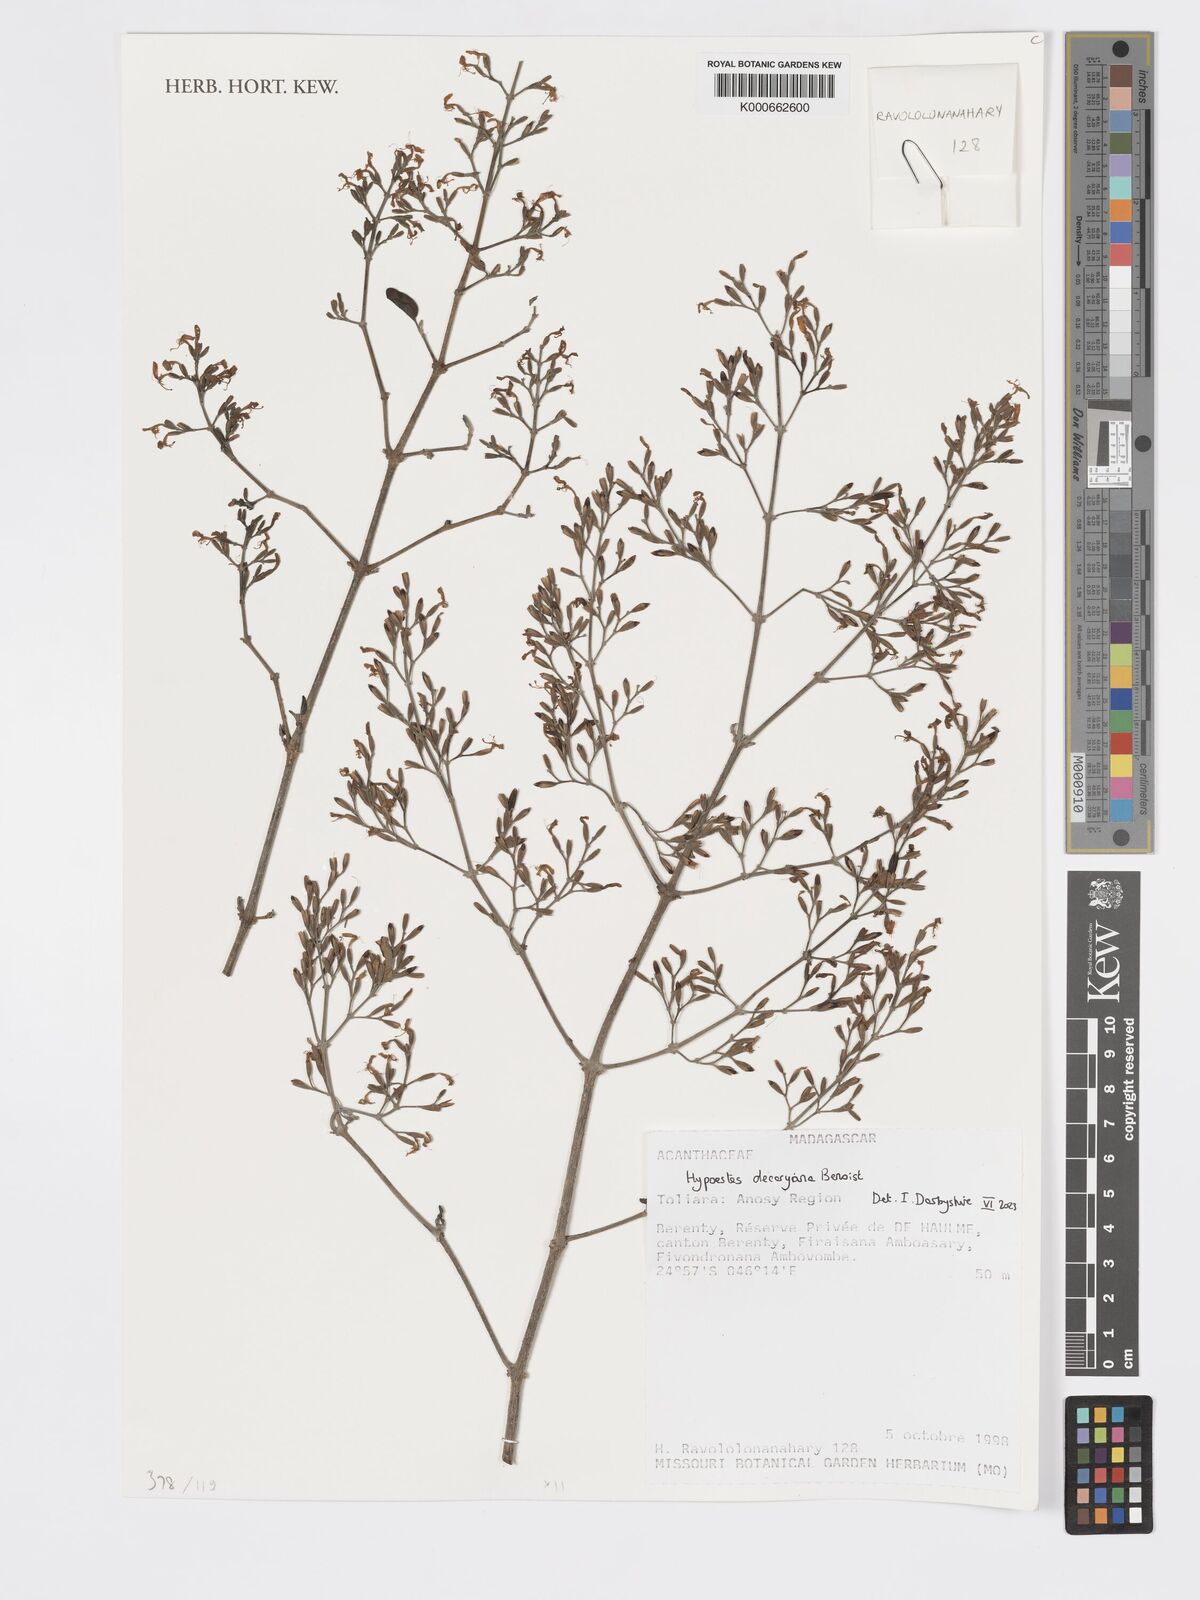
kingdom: Plantae
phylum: Tracheophyta
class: Magnoliopsida
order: Lamiales
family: Acanthaceae
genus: Hypoestes
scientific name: Hypoestes
